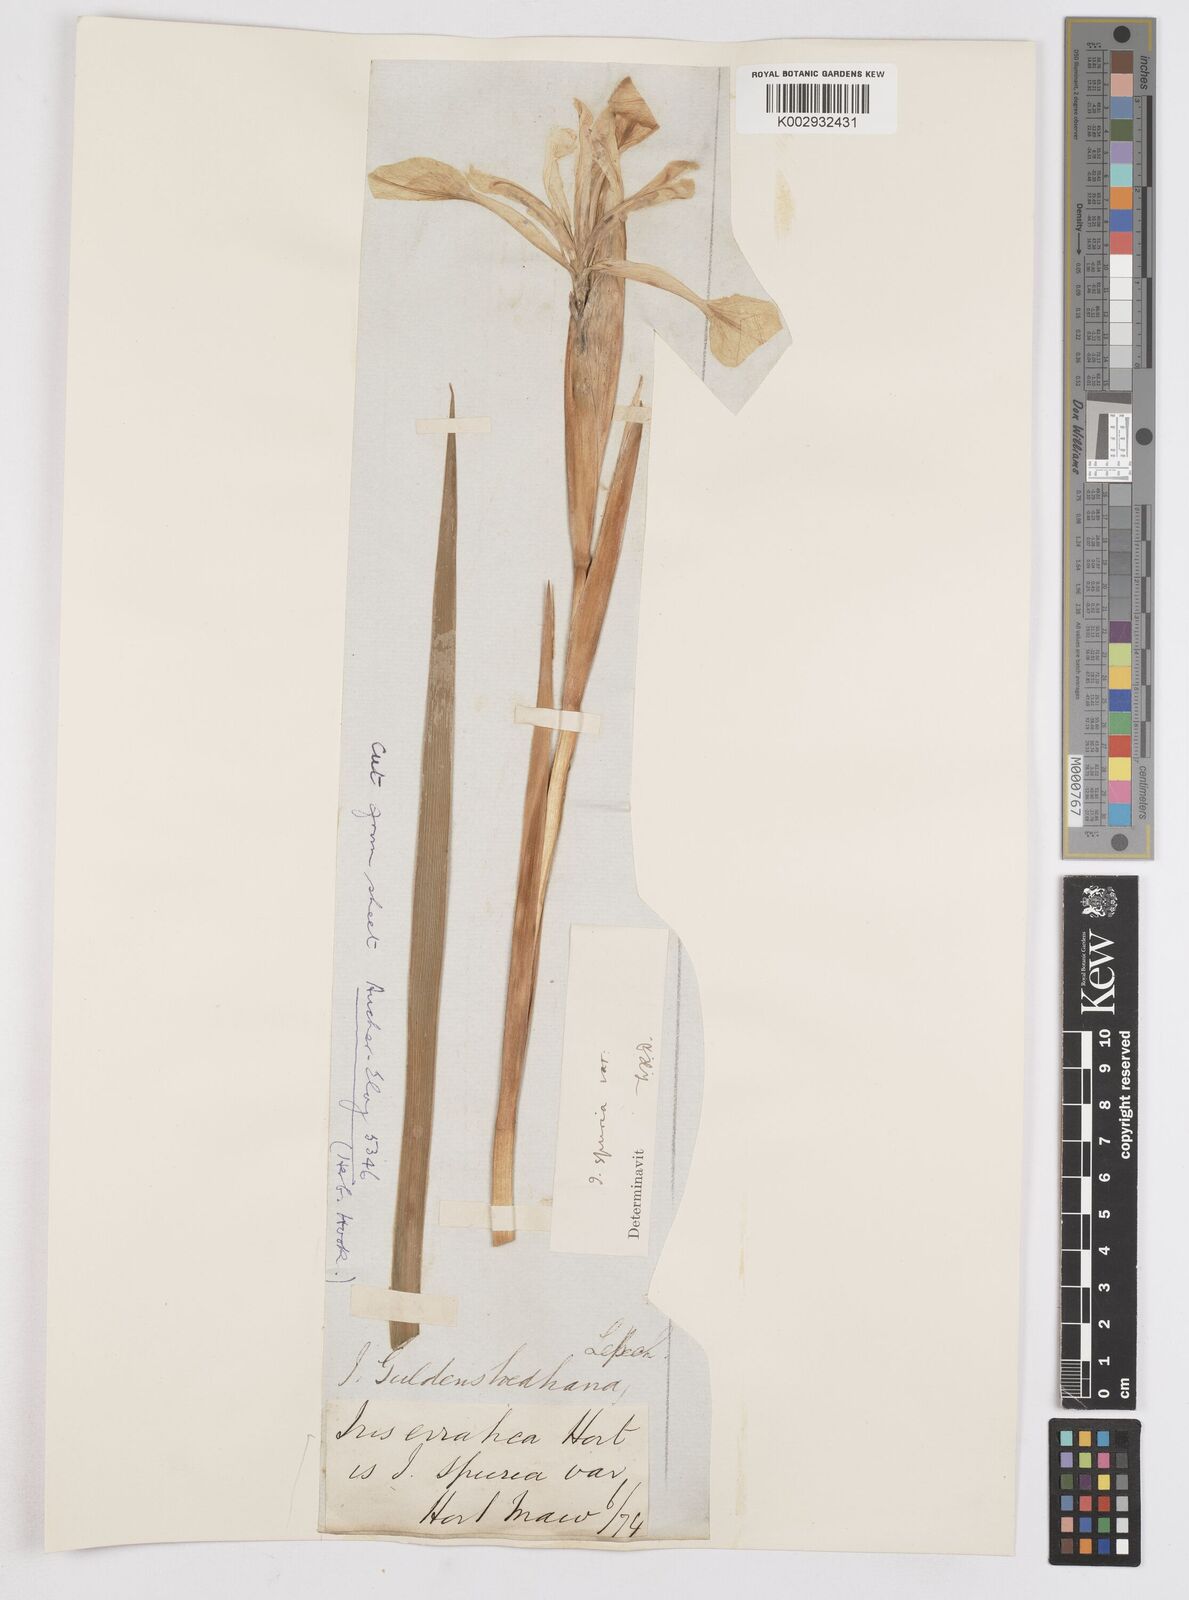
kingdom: Plantae
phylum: Tracheophyta
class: Liliopsida
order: Asparagales
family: Iridaceae
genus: Iris
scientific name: Iris halophila
